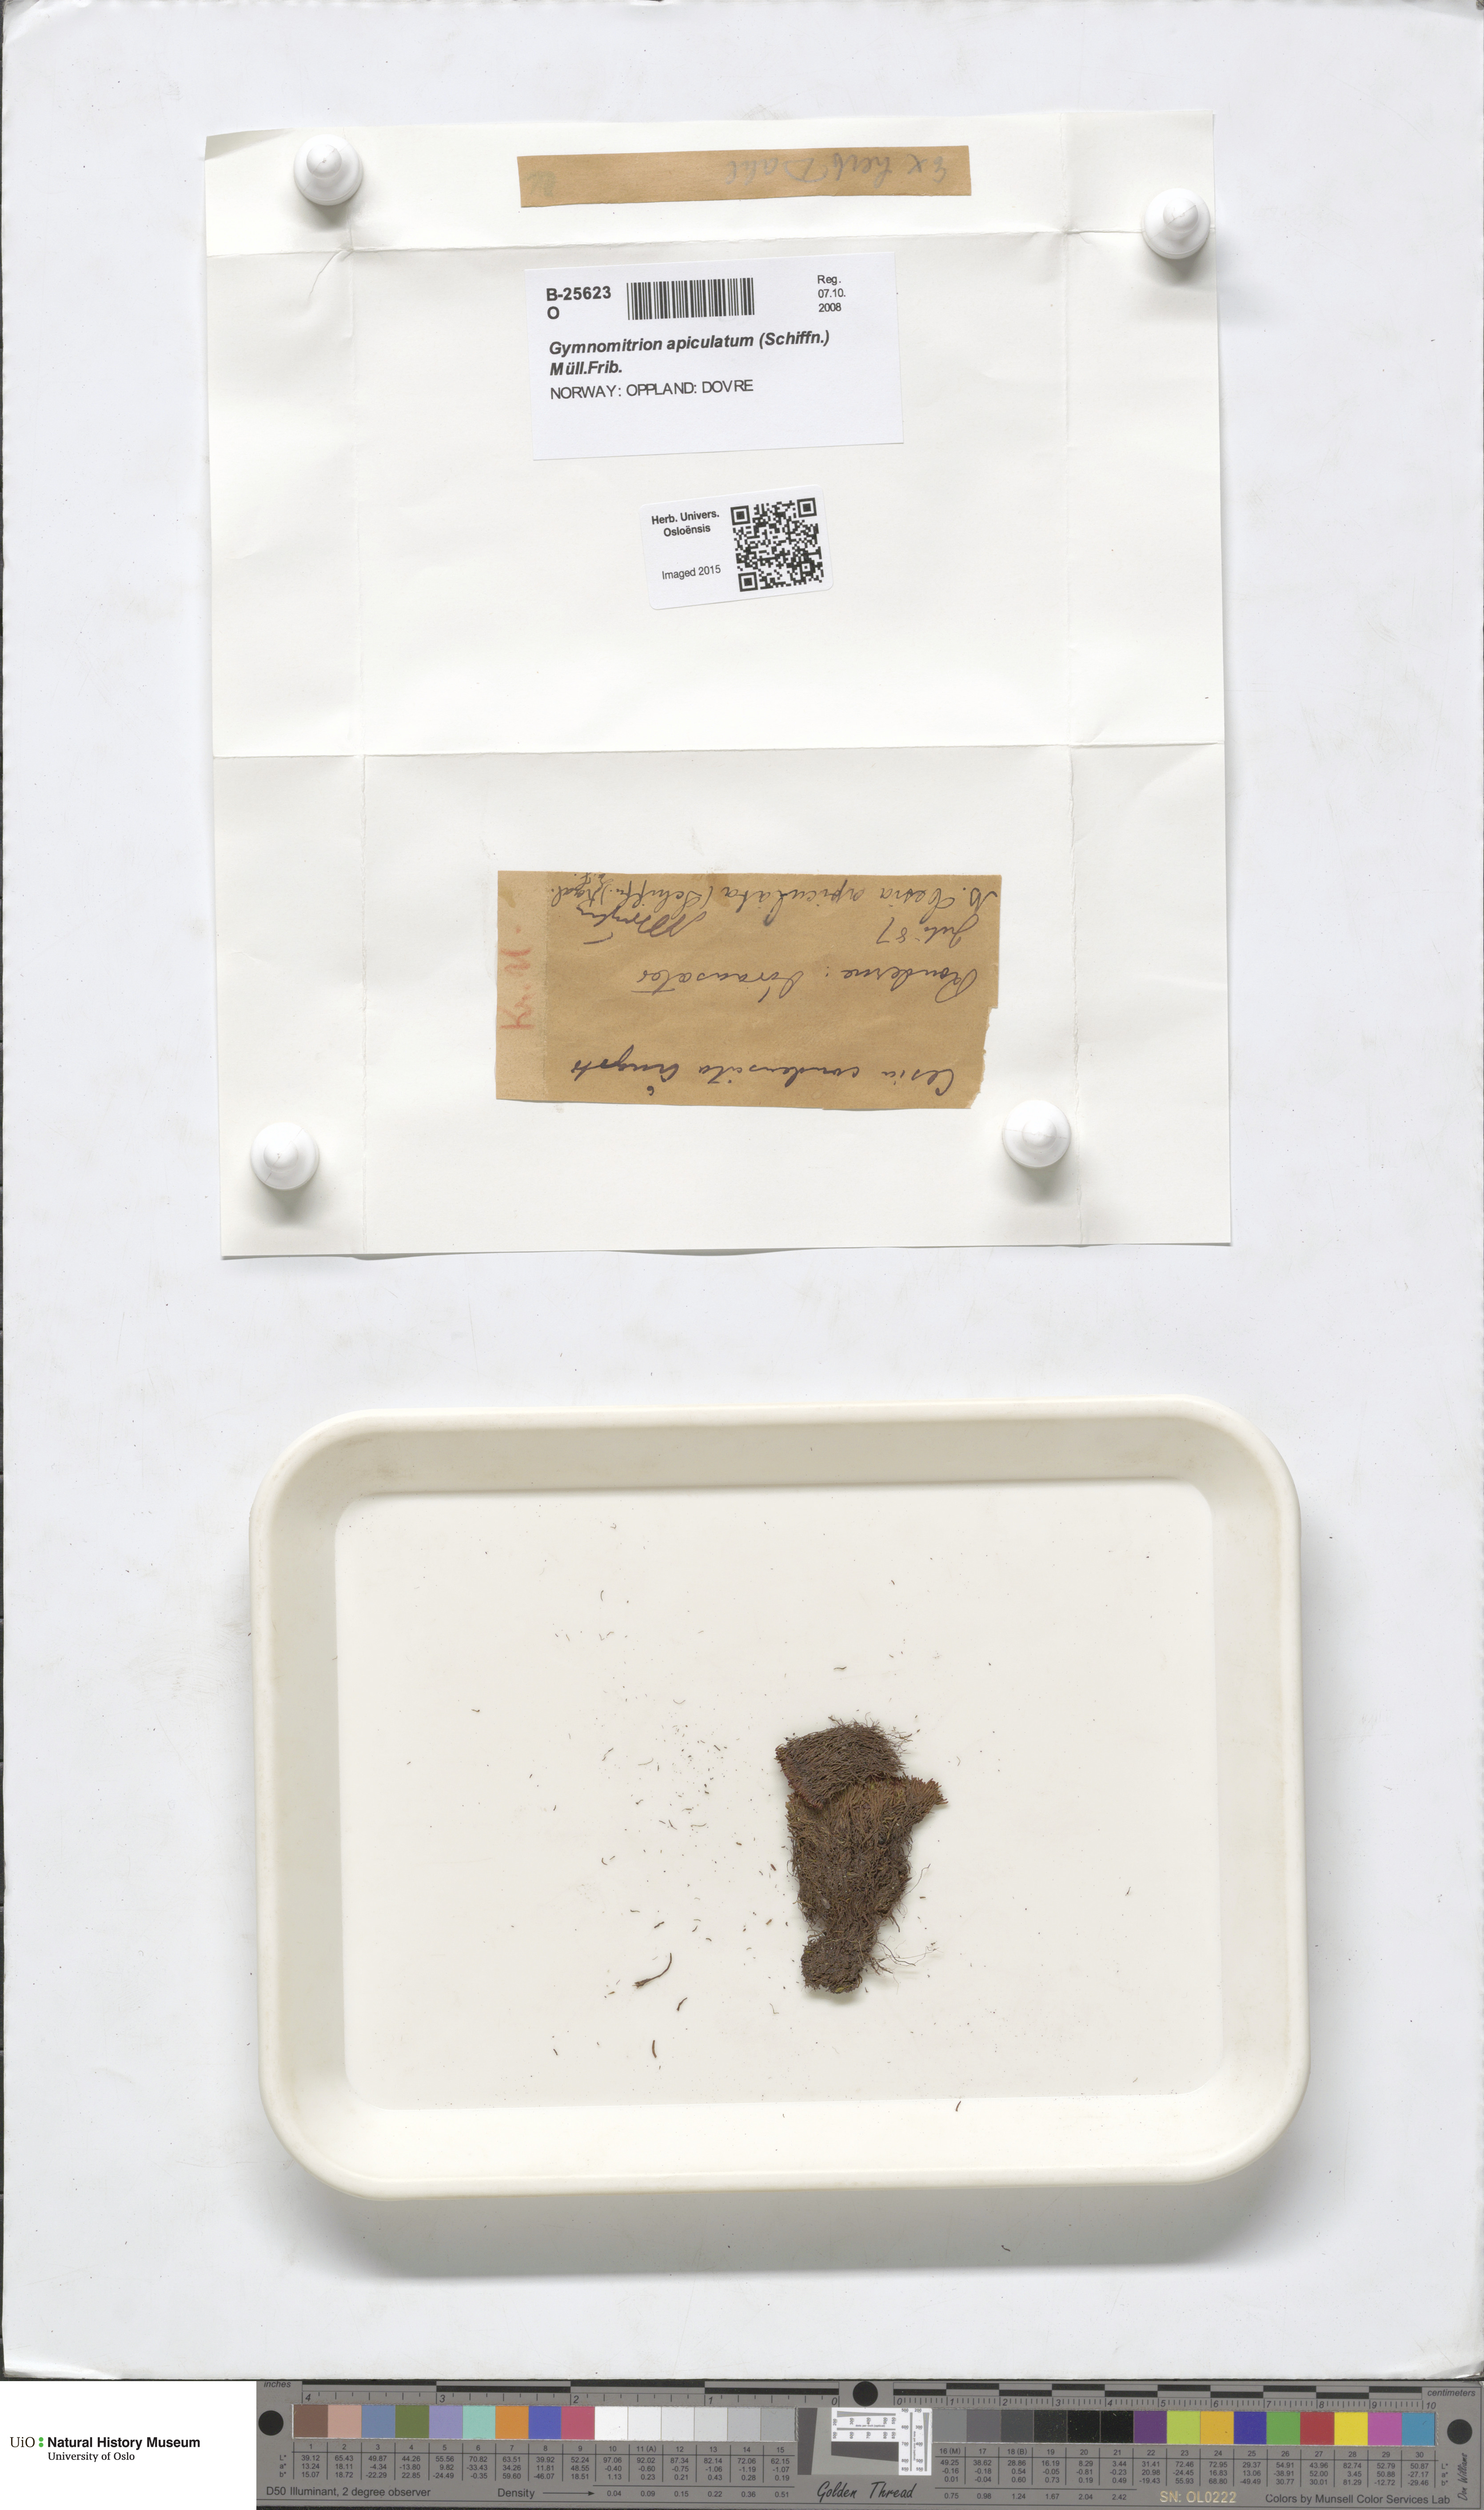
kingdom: Plantae
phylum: Marchantiophyta
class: Jungermanniopsida
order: Jungermanniales
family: Gymnomitriaceae
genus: Marsupella
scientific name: Marsupella apiculata
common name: Pointed frostwort
